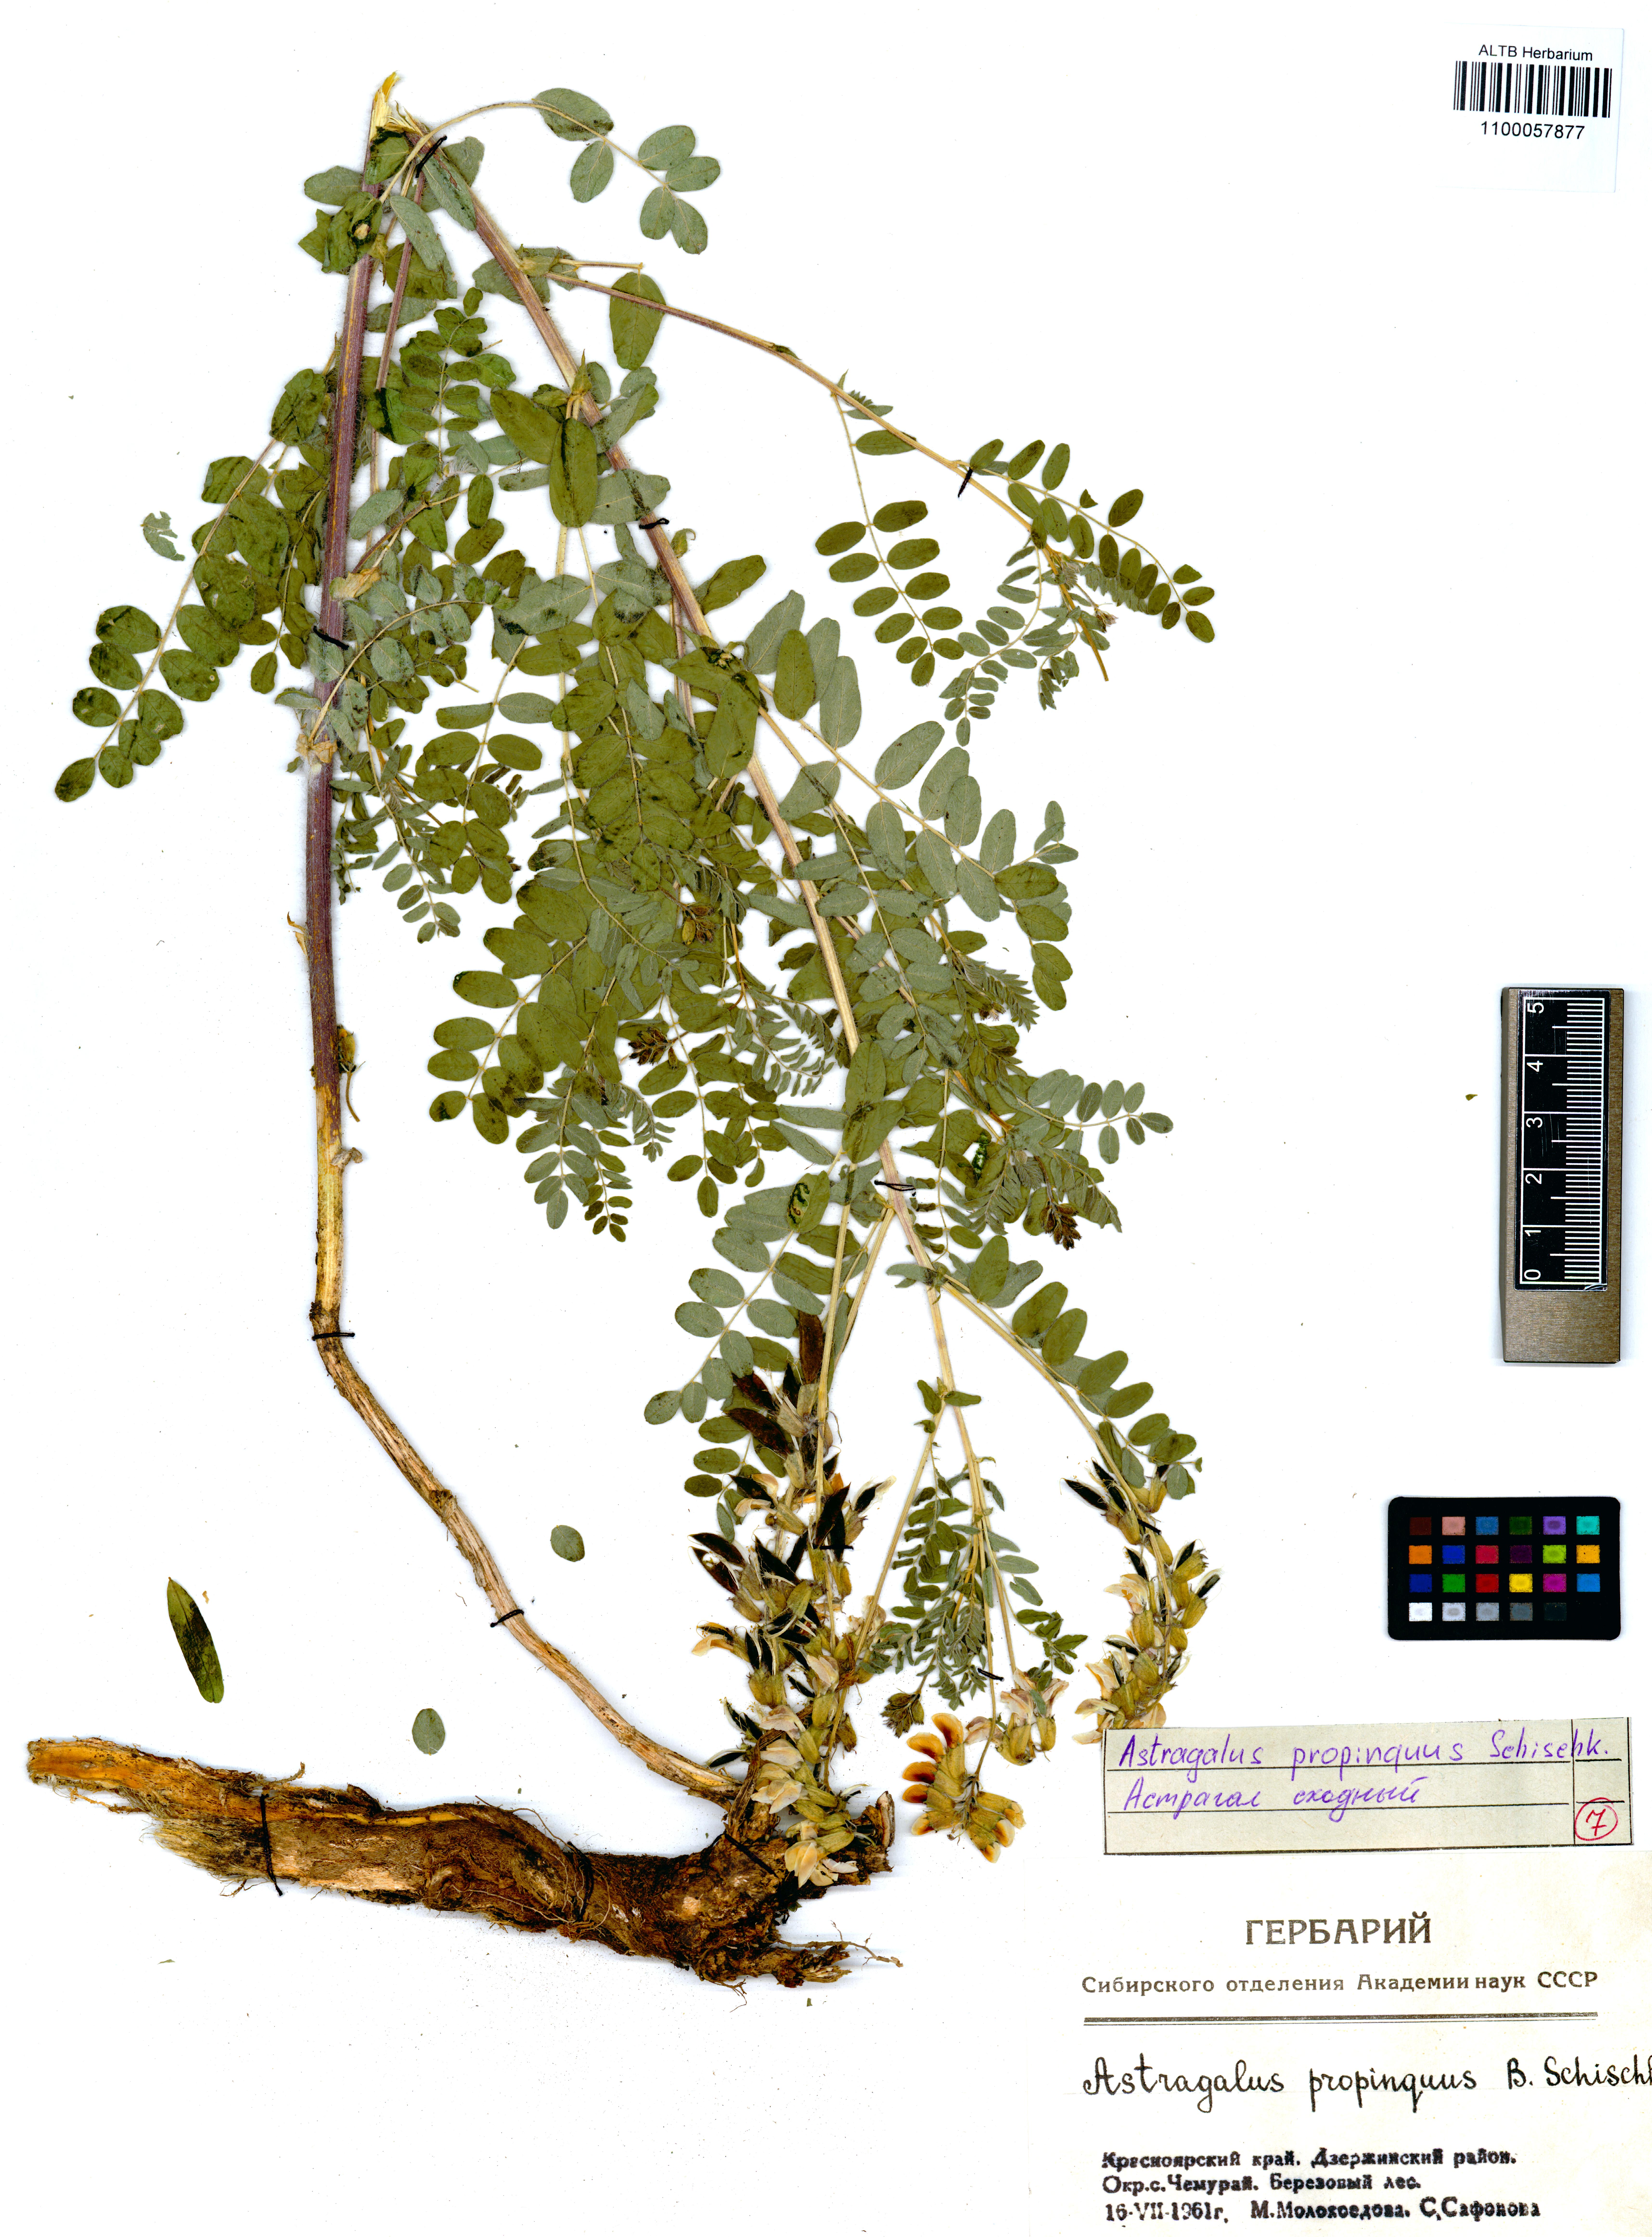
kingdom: Plantae
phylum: Tracheophyta
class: Magnoliopsida
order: Fabales
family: Fabaceae
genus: Astragalus
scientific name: Astragalus mongholicus
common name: Membranous milk-vetch
